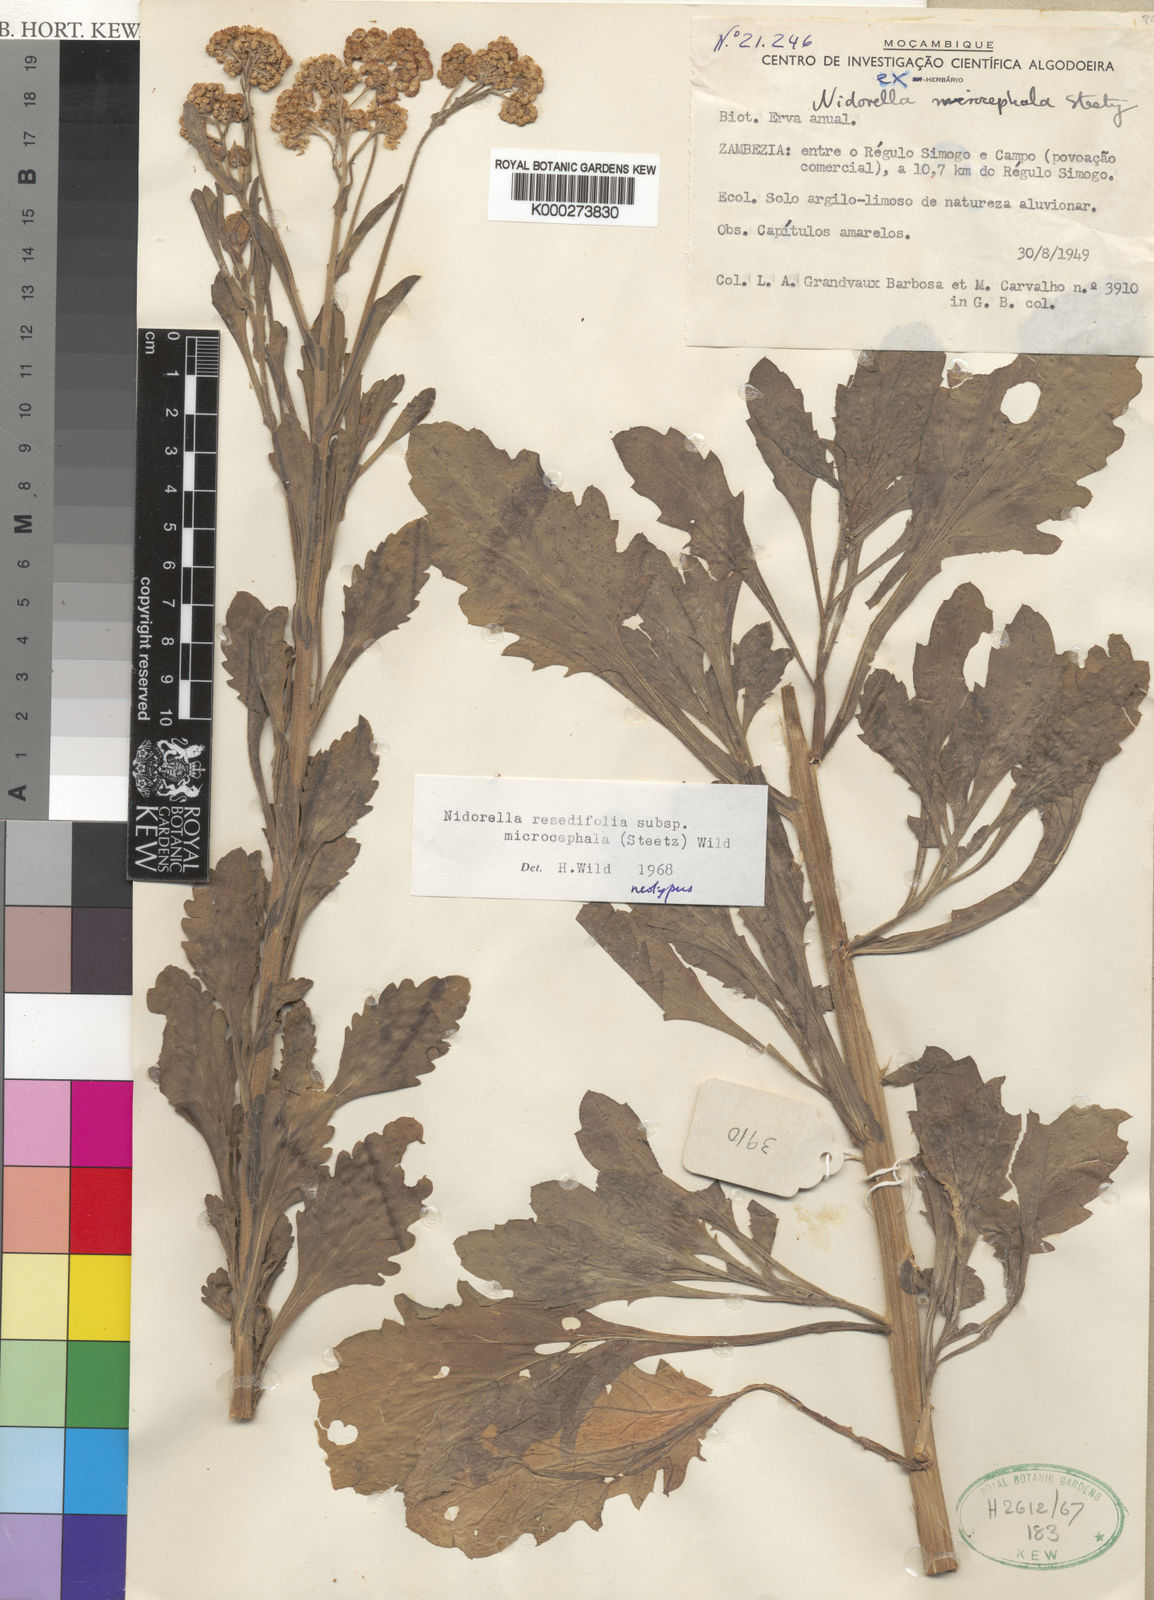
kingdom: Plantae
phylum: Tracheophyta
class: Magnoliopsida
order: Asterales
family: Asteraceae
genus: Nidorella
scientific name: Nidorella resedifolia
